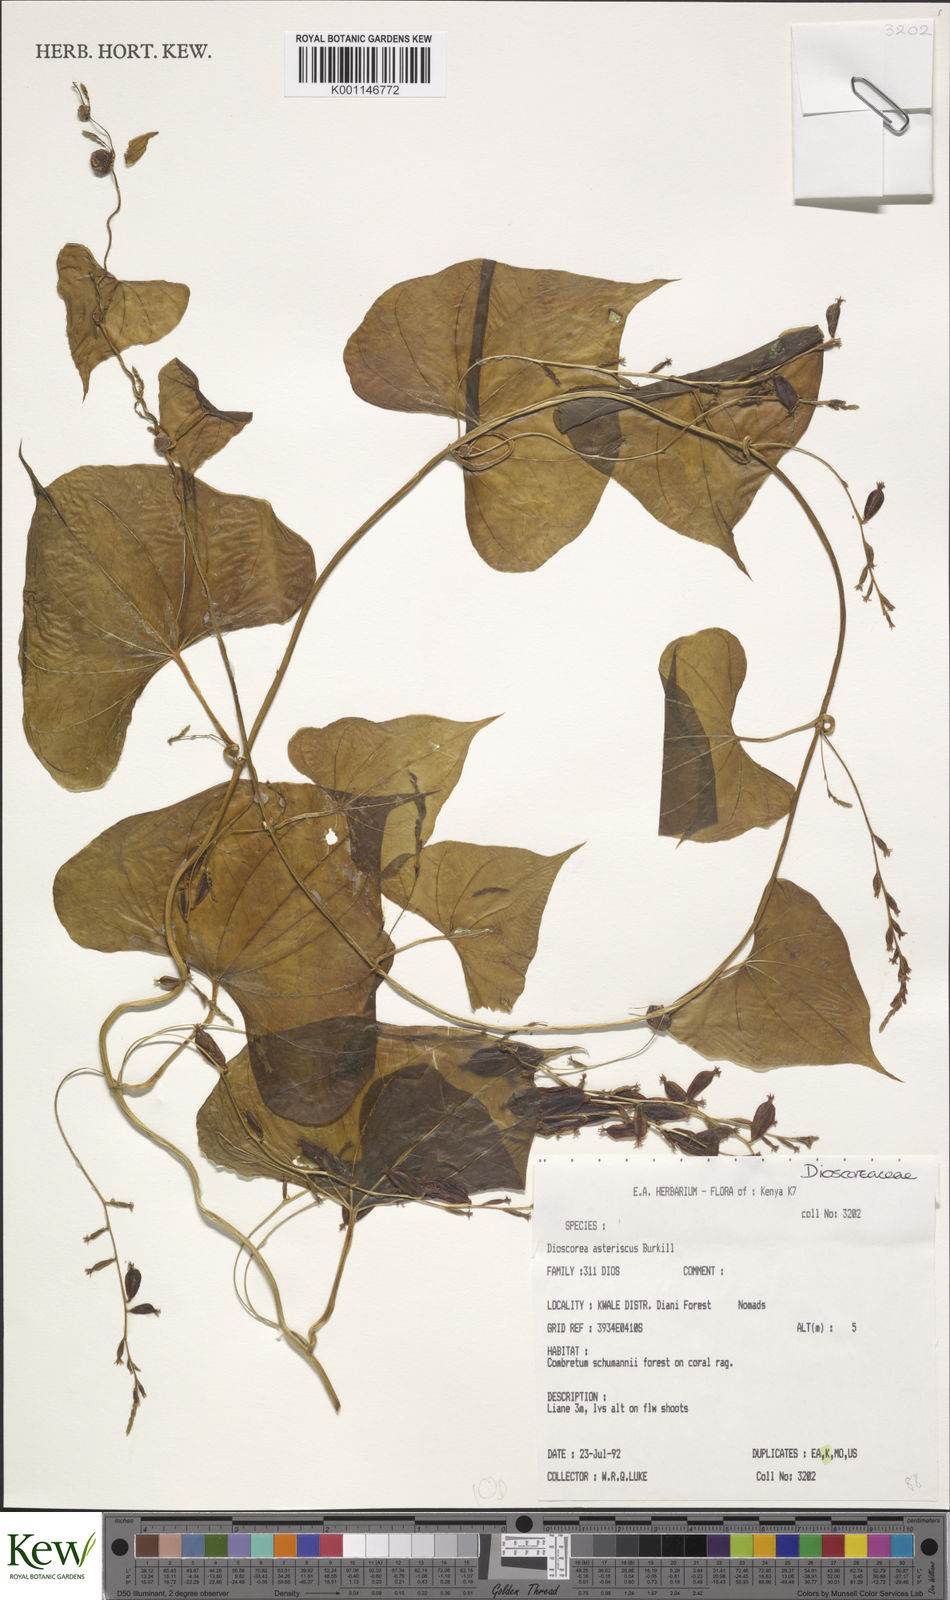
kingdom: Plantae
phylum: Tracheophyta
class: Liliopsida
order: Dioscoreales
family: Dioscoreaceae
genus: Dioscorea
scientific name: Dioscorea asteriscus
